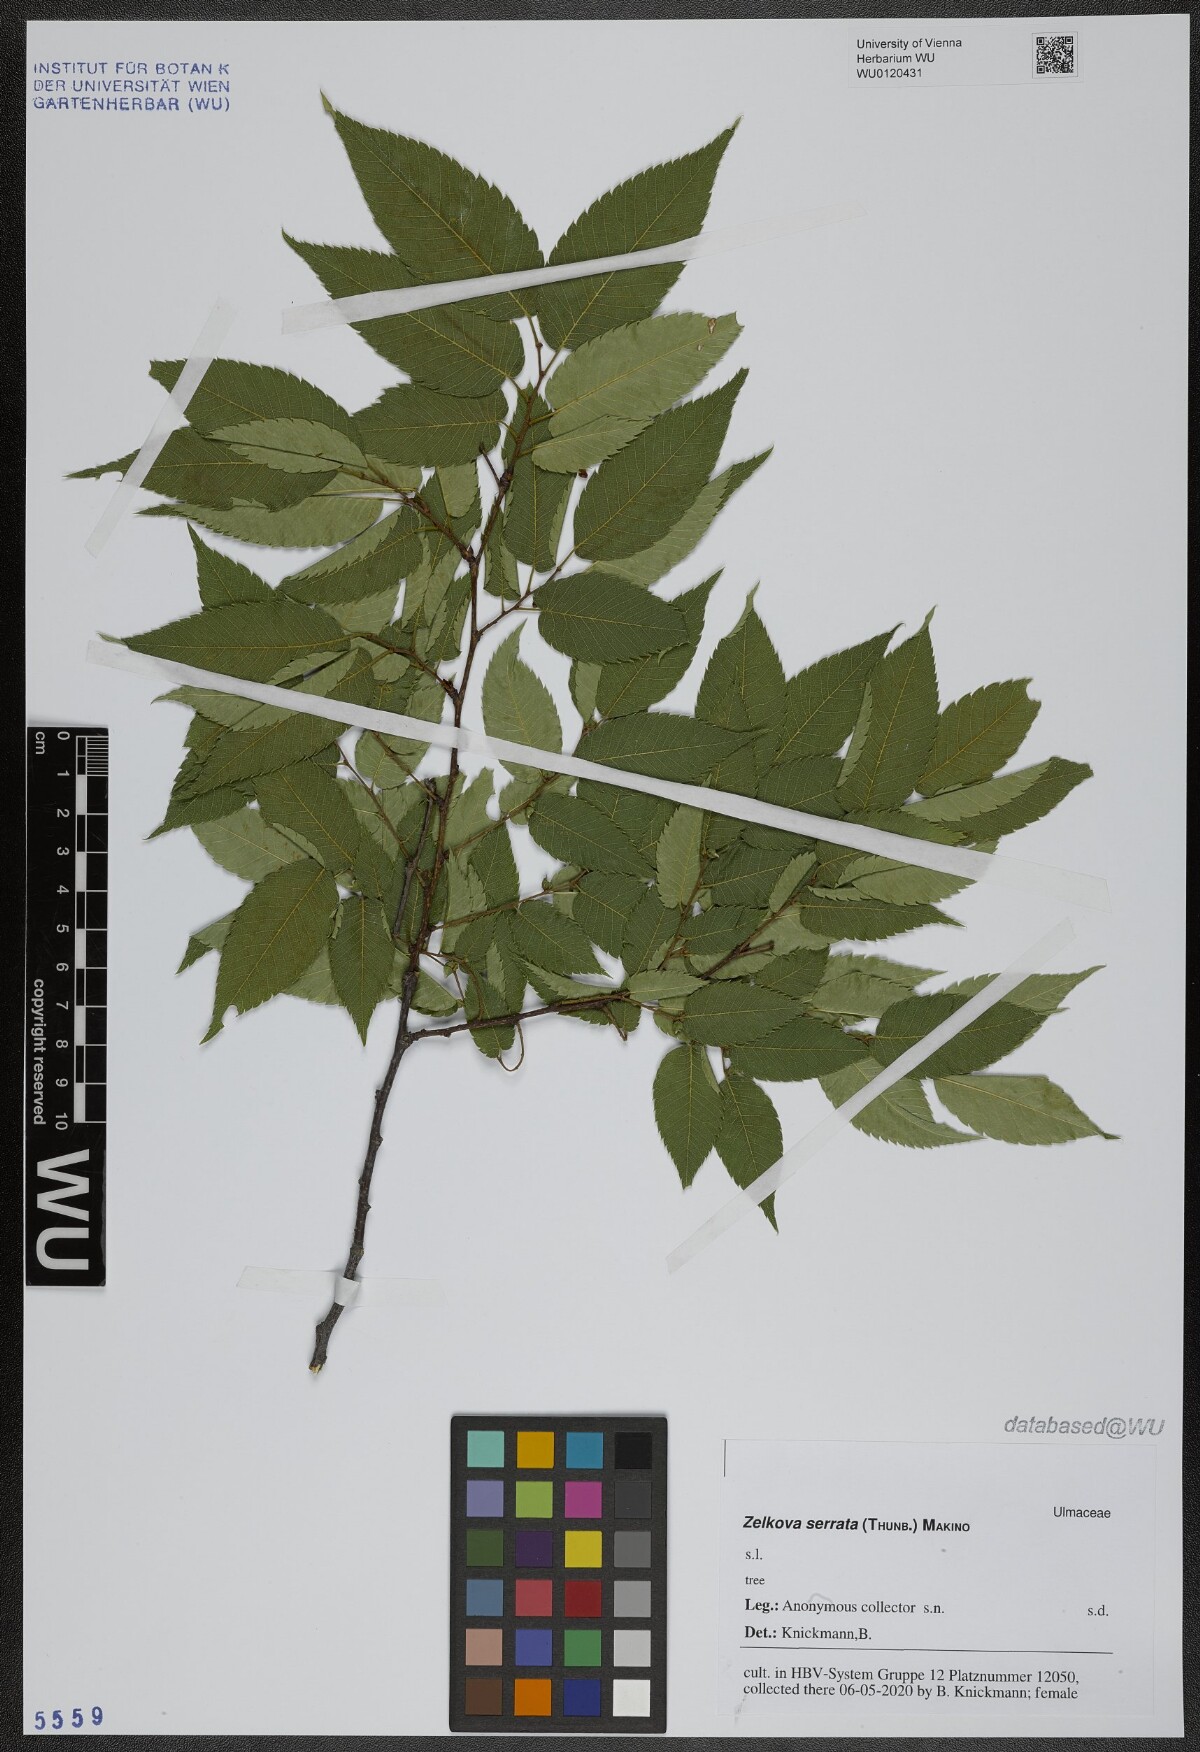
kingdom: Plantae
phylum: Tracheophyta
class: Magnoliopsida
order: Rosales
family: Ulmaceae
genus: Zelkova
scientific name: Zelkova serrata
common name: Japanese zelkova
